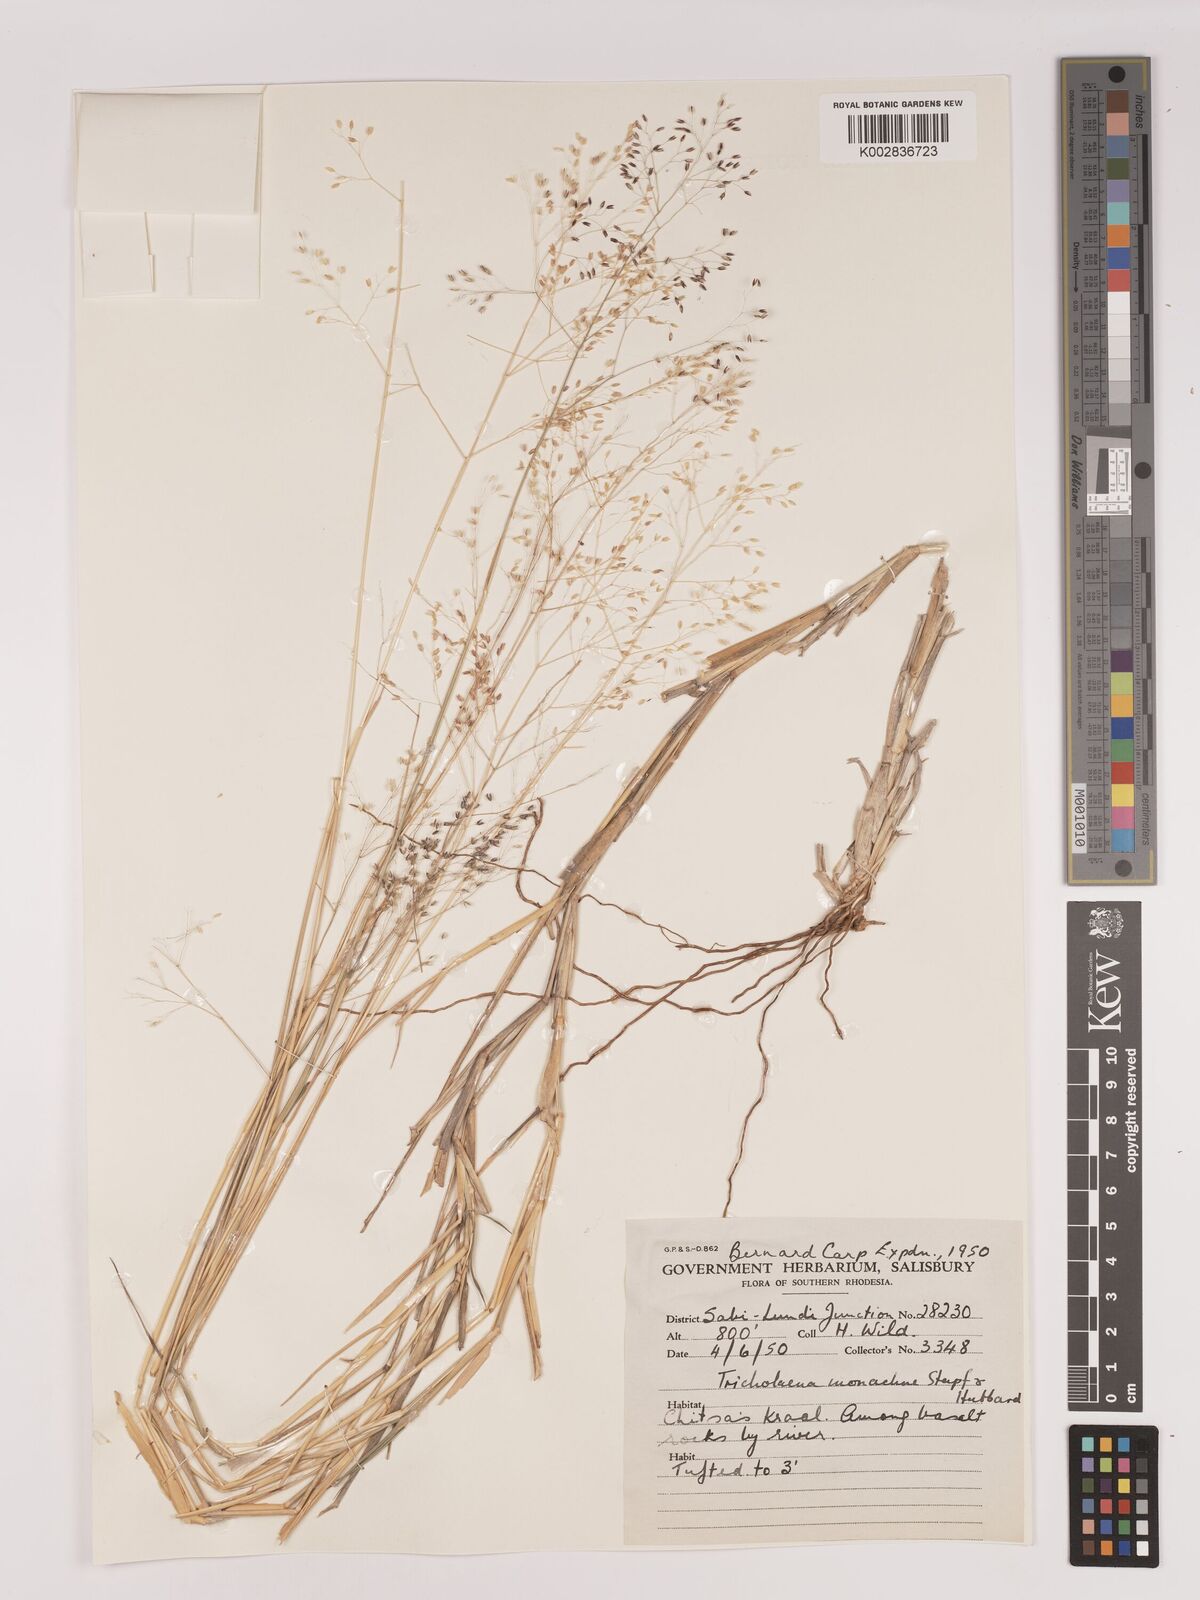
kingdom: Plantae
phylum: Tracheophyta
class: Liliopsida
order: Poales
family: Poaceae
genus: Tricholaena
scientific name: Tricholaena monachne
